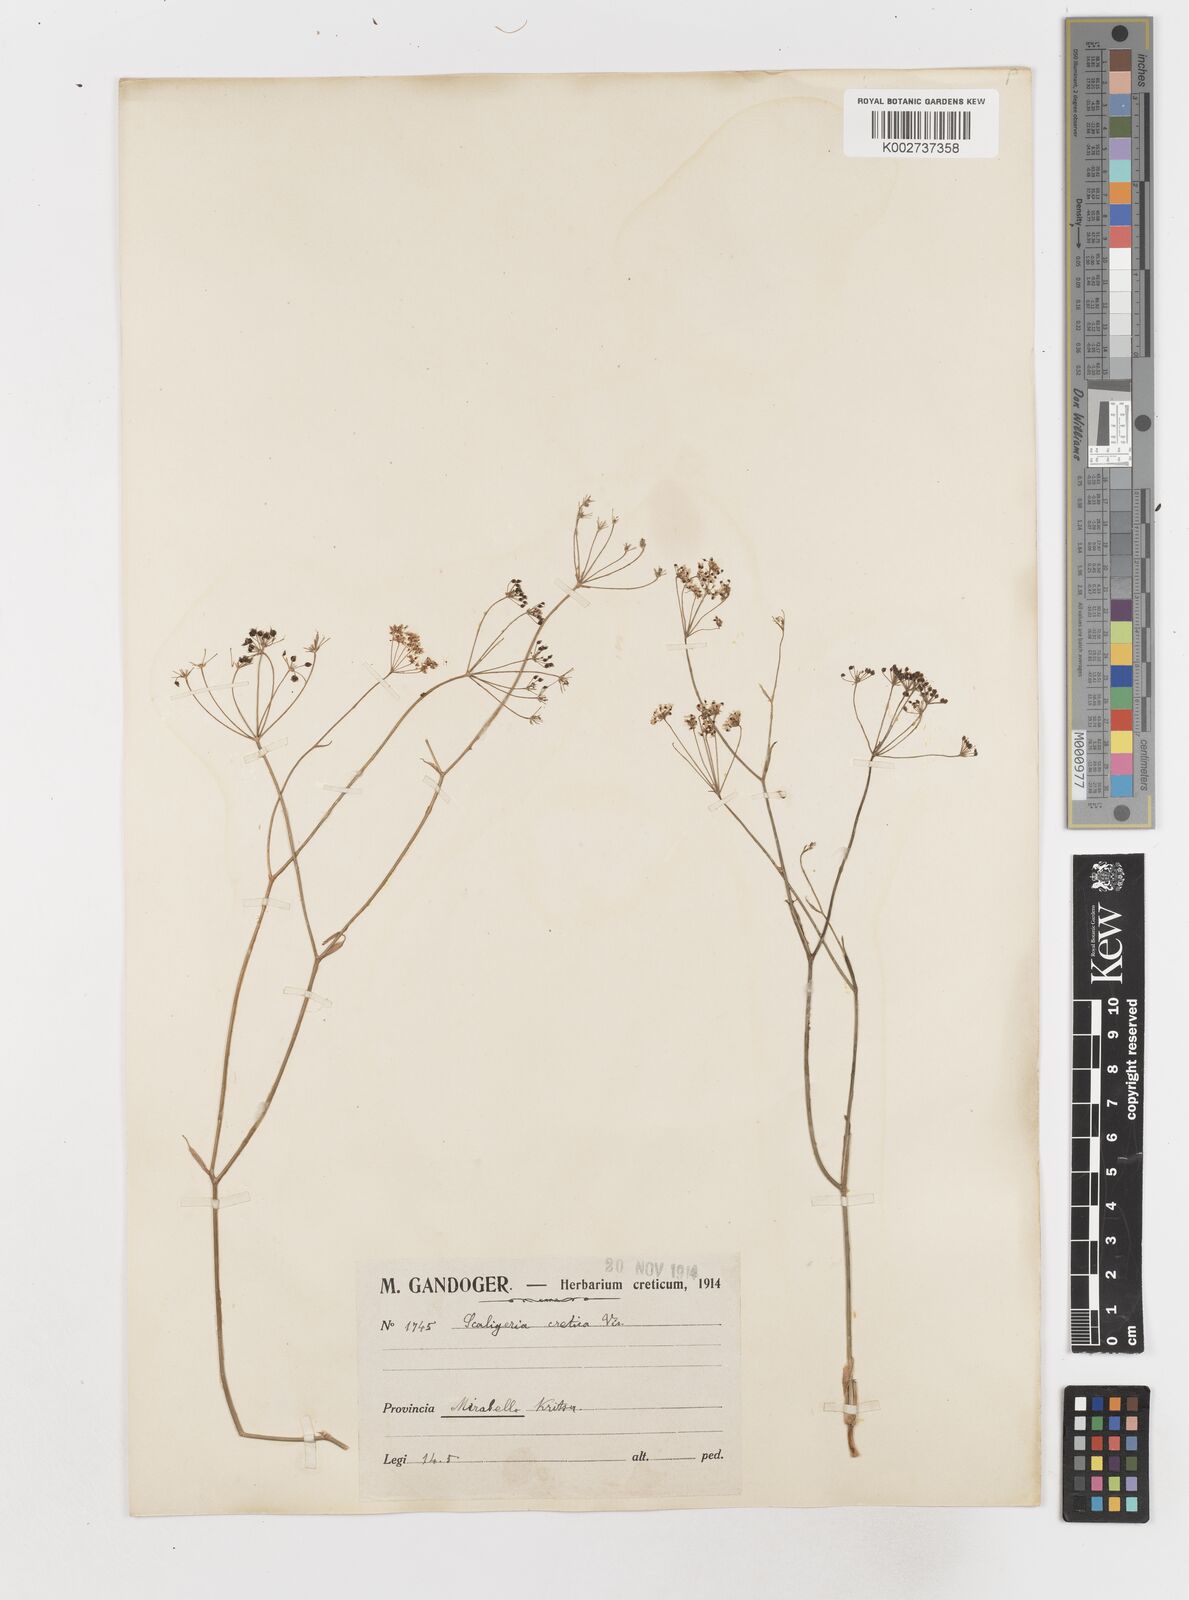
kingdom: Plantae
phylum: Tracheophyta
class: Magnoliopsida
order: Apiales
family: Apiaceae
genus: Scaligeria
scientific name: Scaligeria napiformis
